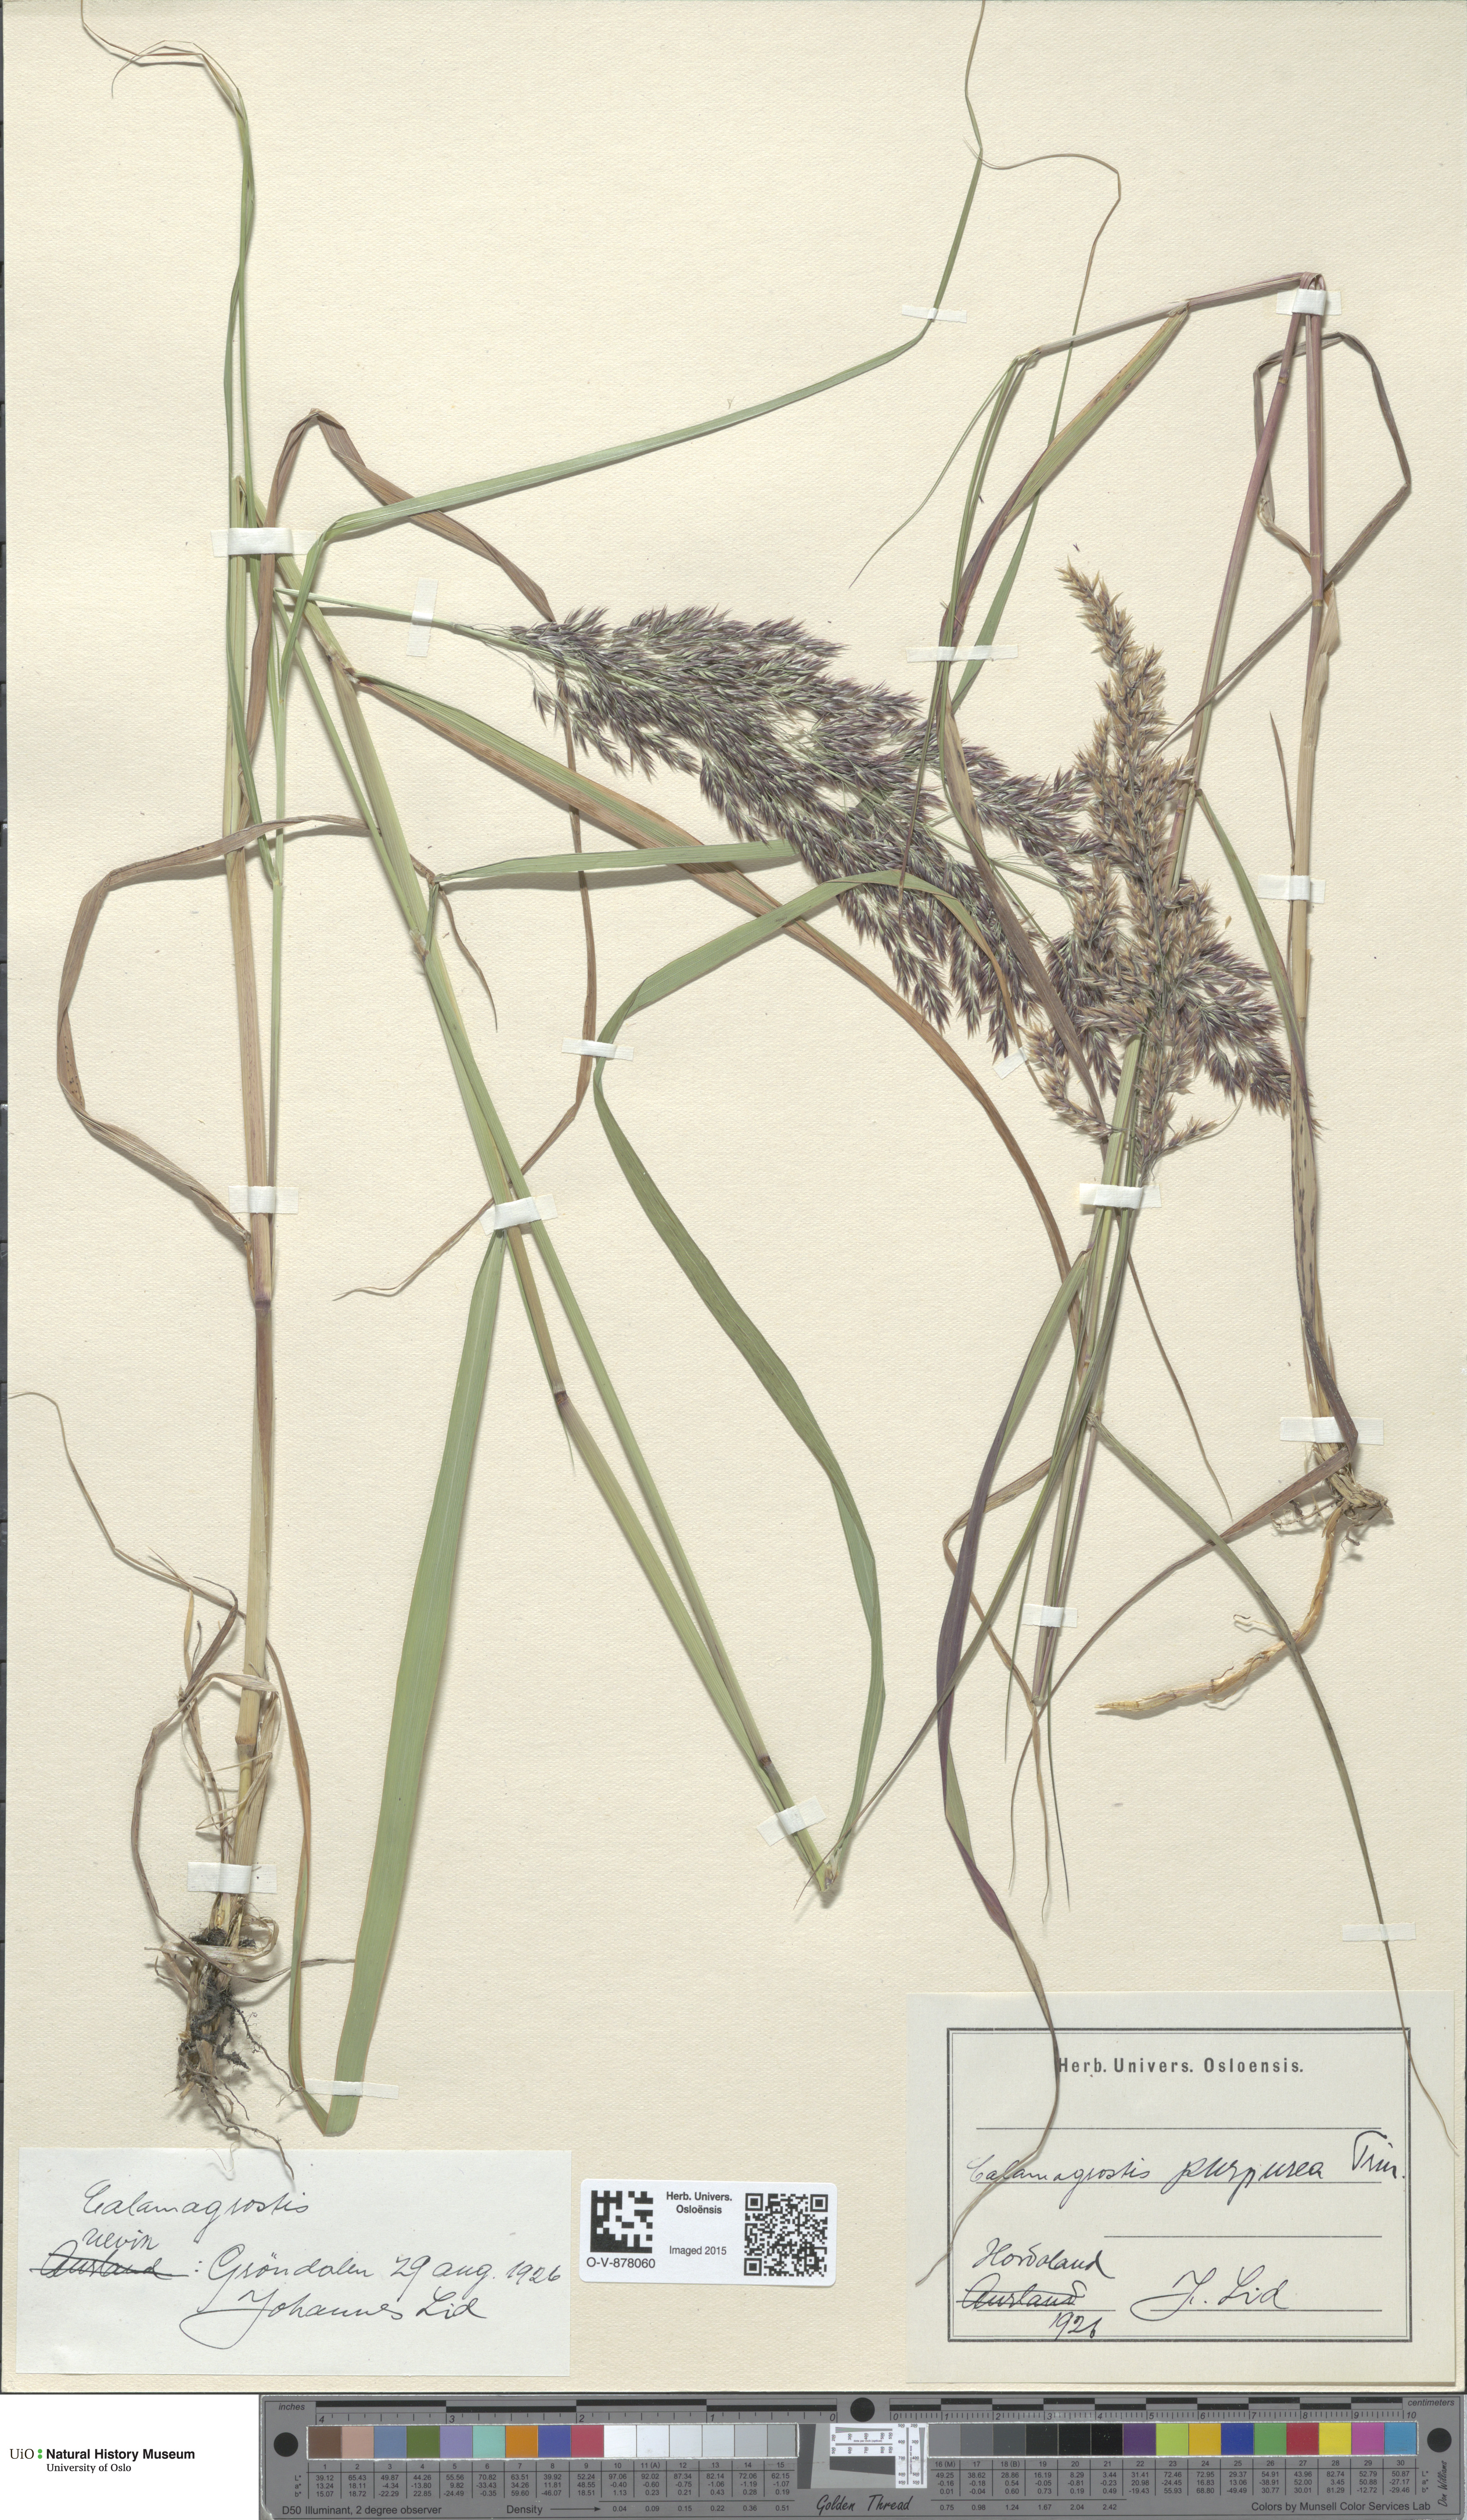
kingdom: Plantae
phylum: Tracheophyta
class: Liliopsida
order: Poales
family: Poaceae
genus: Calamagrostis
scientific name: Calamagrostis purpurea
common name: Scandinavian small-reed
